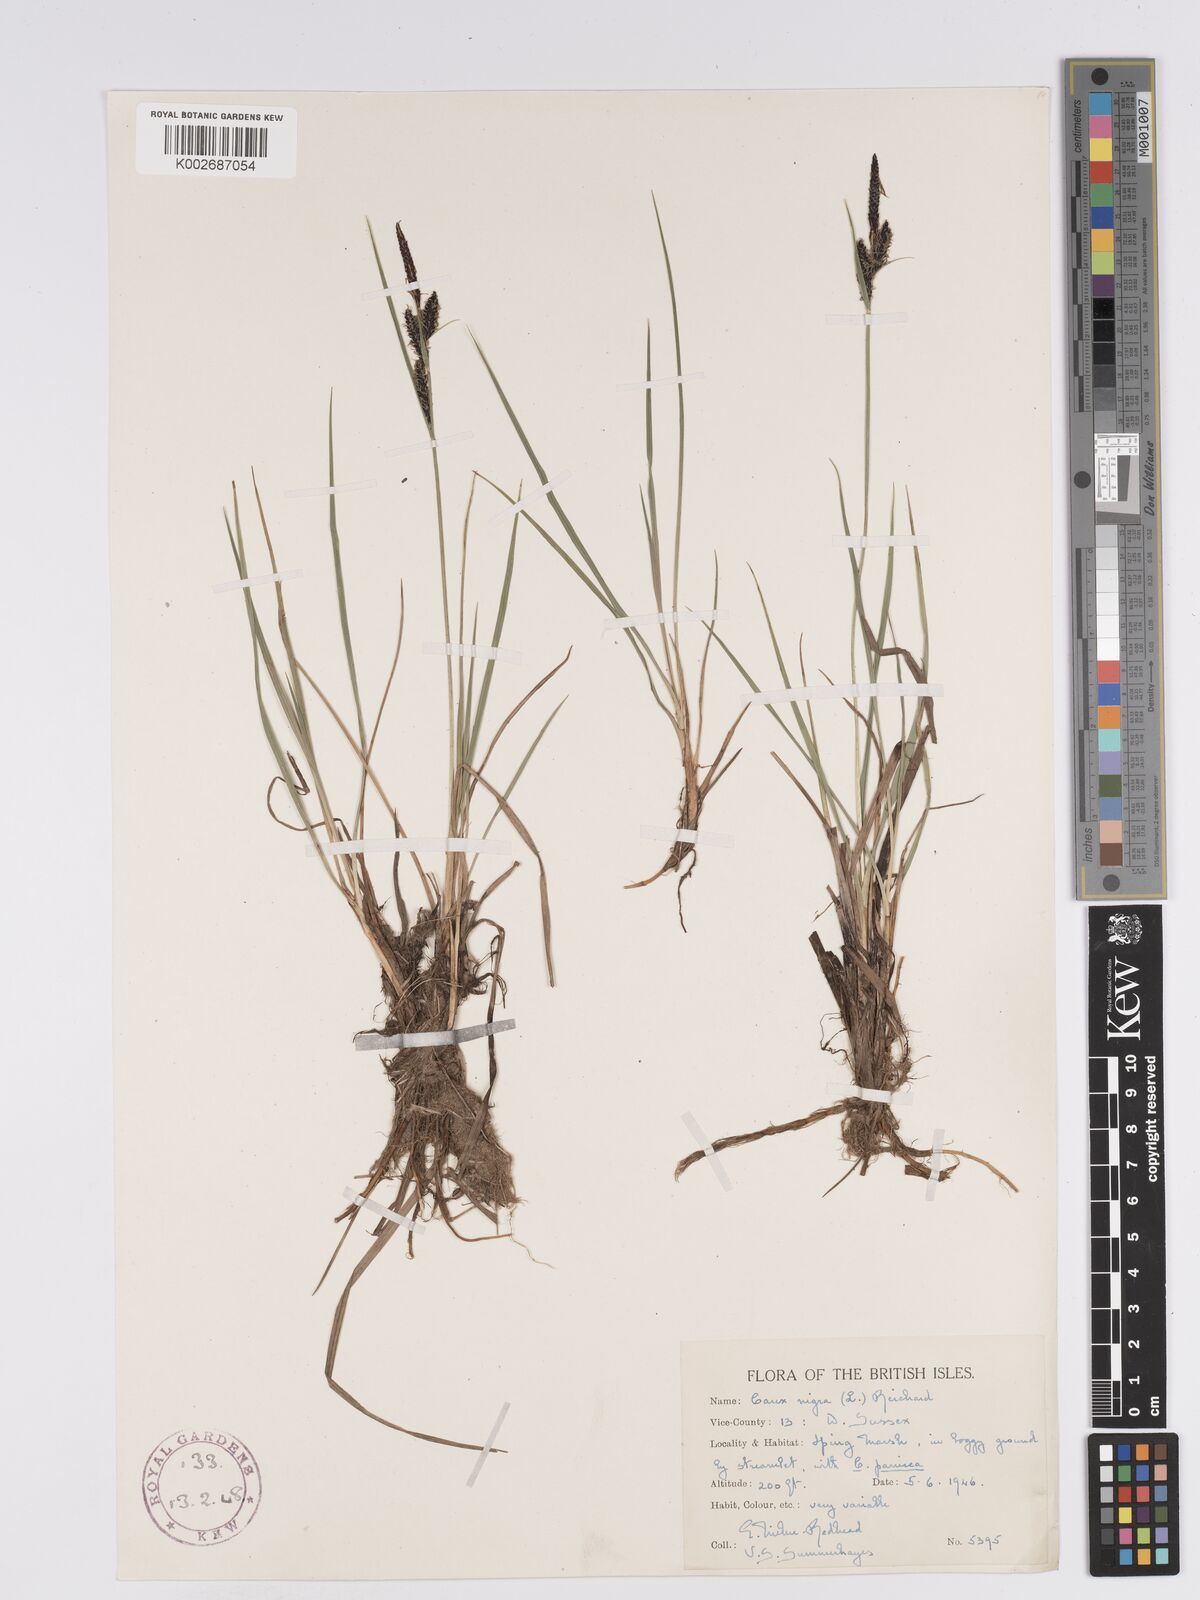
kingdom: Plantae
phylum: Tracheophyta
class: Liliopsida
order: Poales
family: Cyperaceae
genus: Carex
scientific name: Carex nigra
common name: Common sedge
